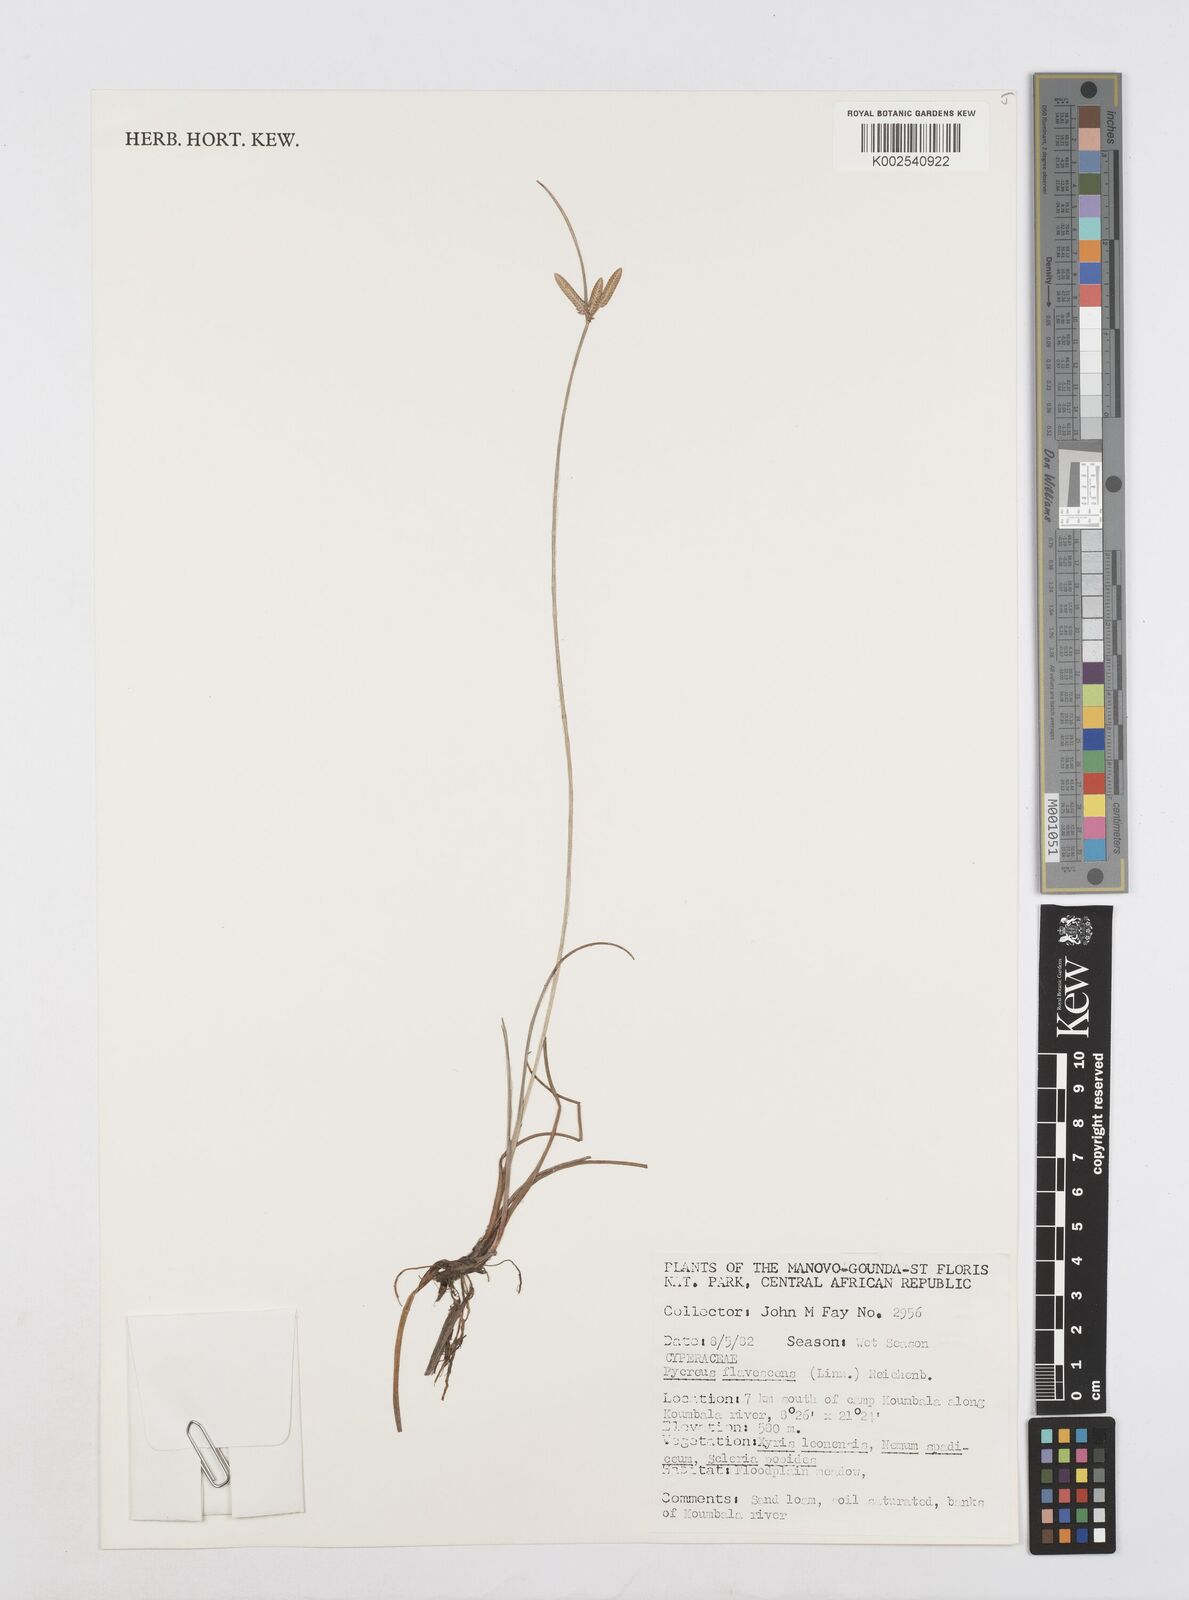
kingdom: Plantae
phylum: Tracheophyta
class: Liliopsida
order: Poales
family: Cyperaceae
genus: Cyperus
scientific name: Cyperus flavescens
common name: Yellow galingale
